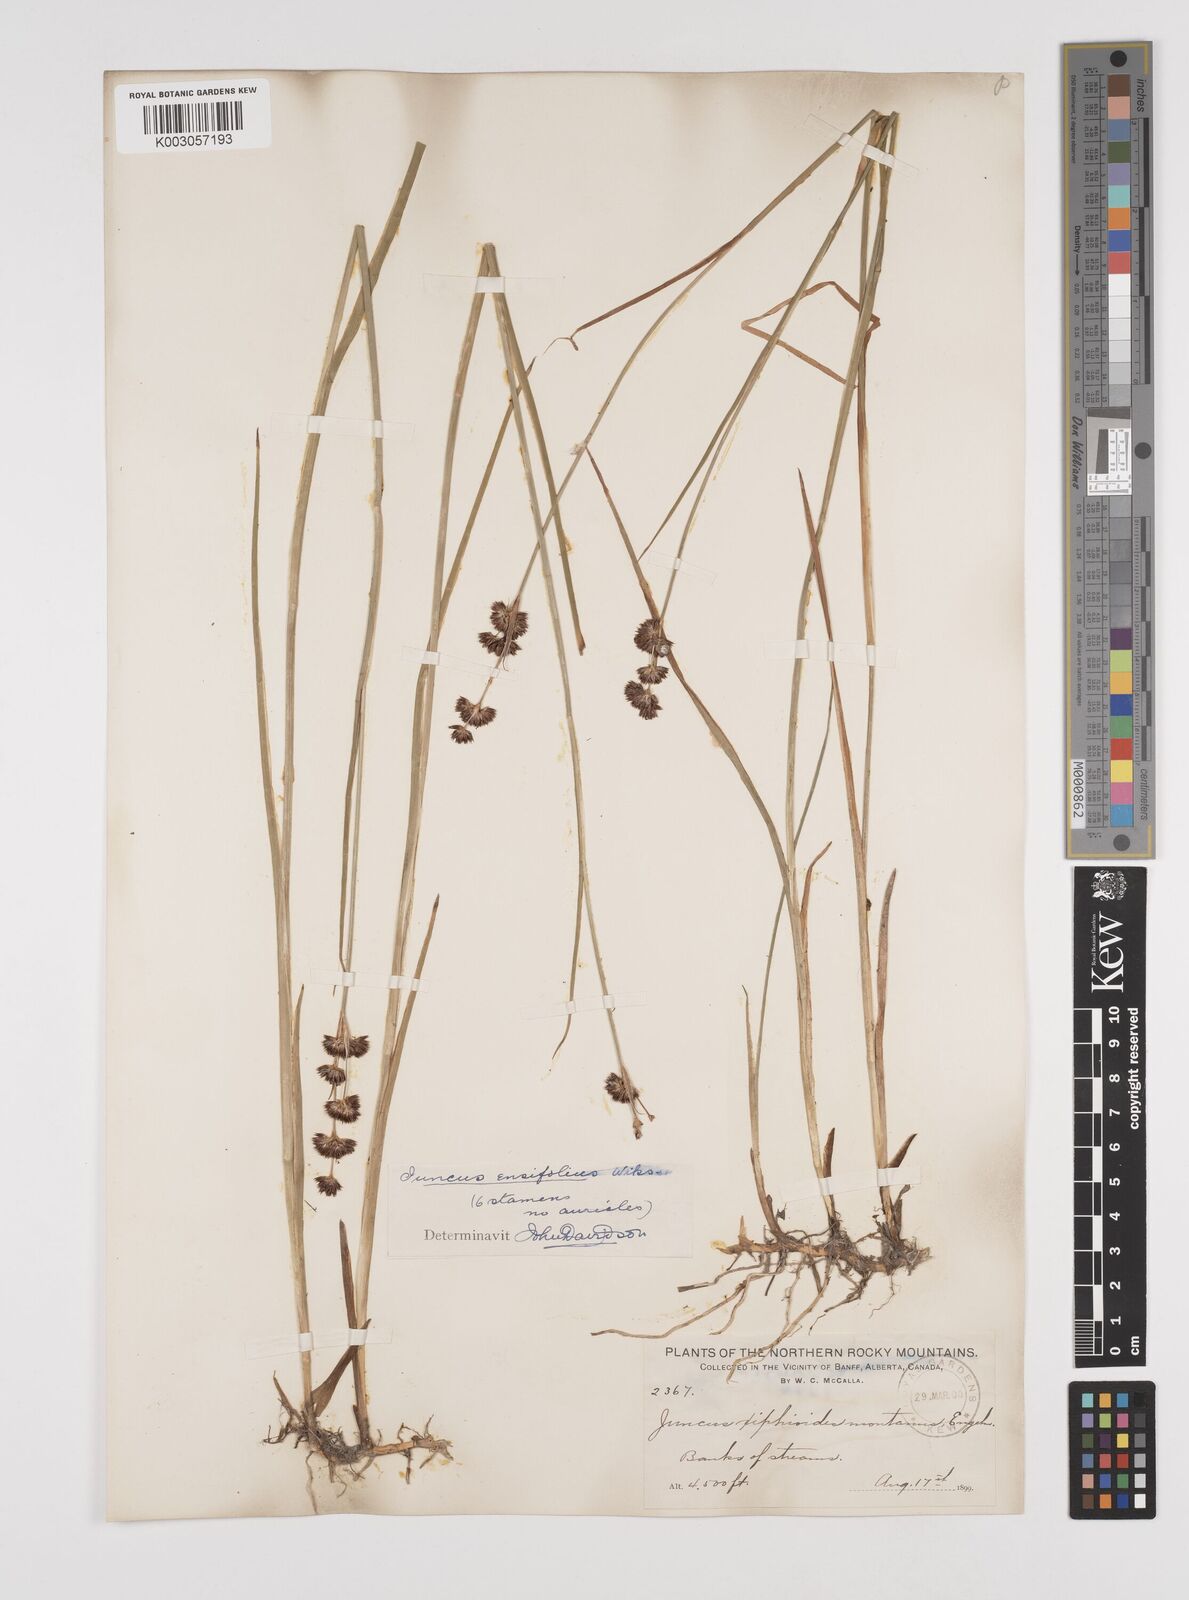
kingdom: Plantae
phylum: Tracheophyta
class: Liliopsida
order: Poales
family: Juncaceae
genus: Juncus
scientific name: Juncus ensifolius
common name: Sword-leaved rush
